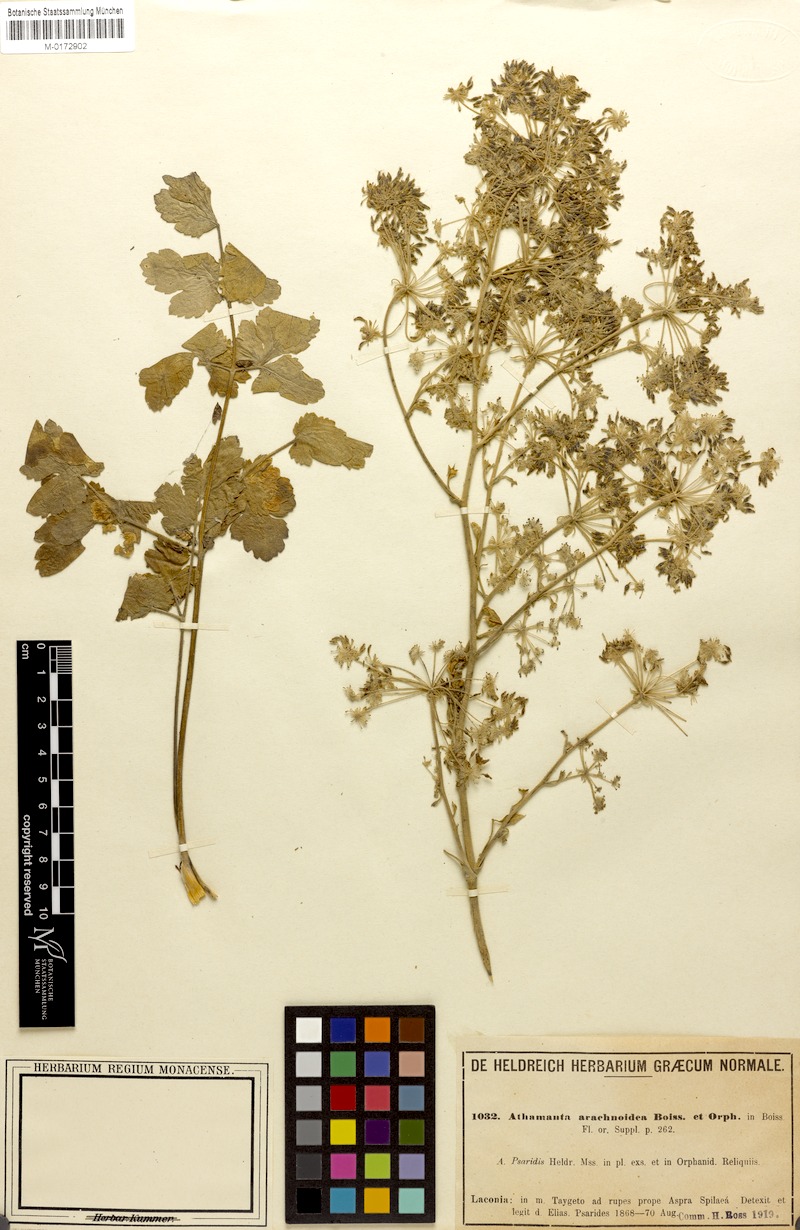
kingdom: Plantae
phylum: Tracheophyta
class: Magnoliopsida
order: Apiales
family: Apiaceae
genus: Bubon
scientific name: Bubon arachnoideum
